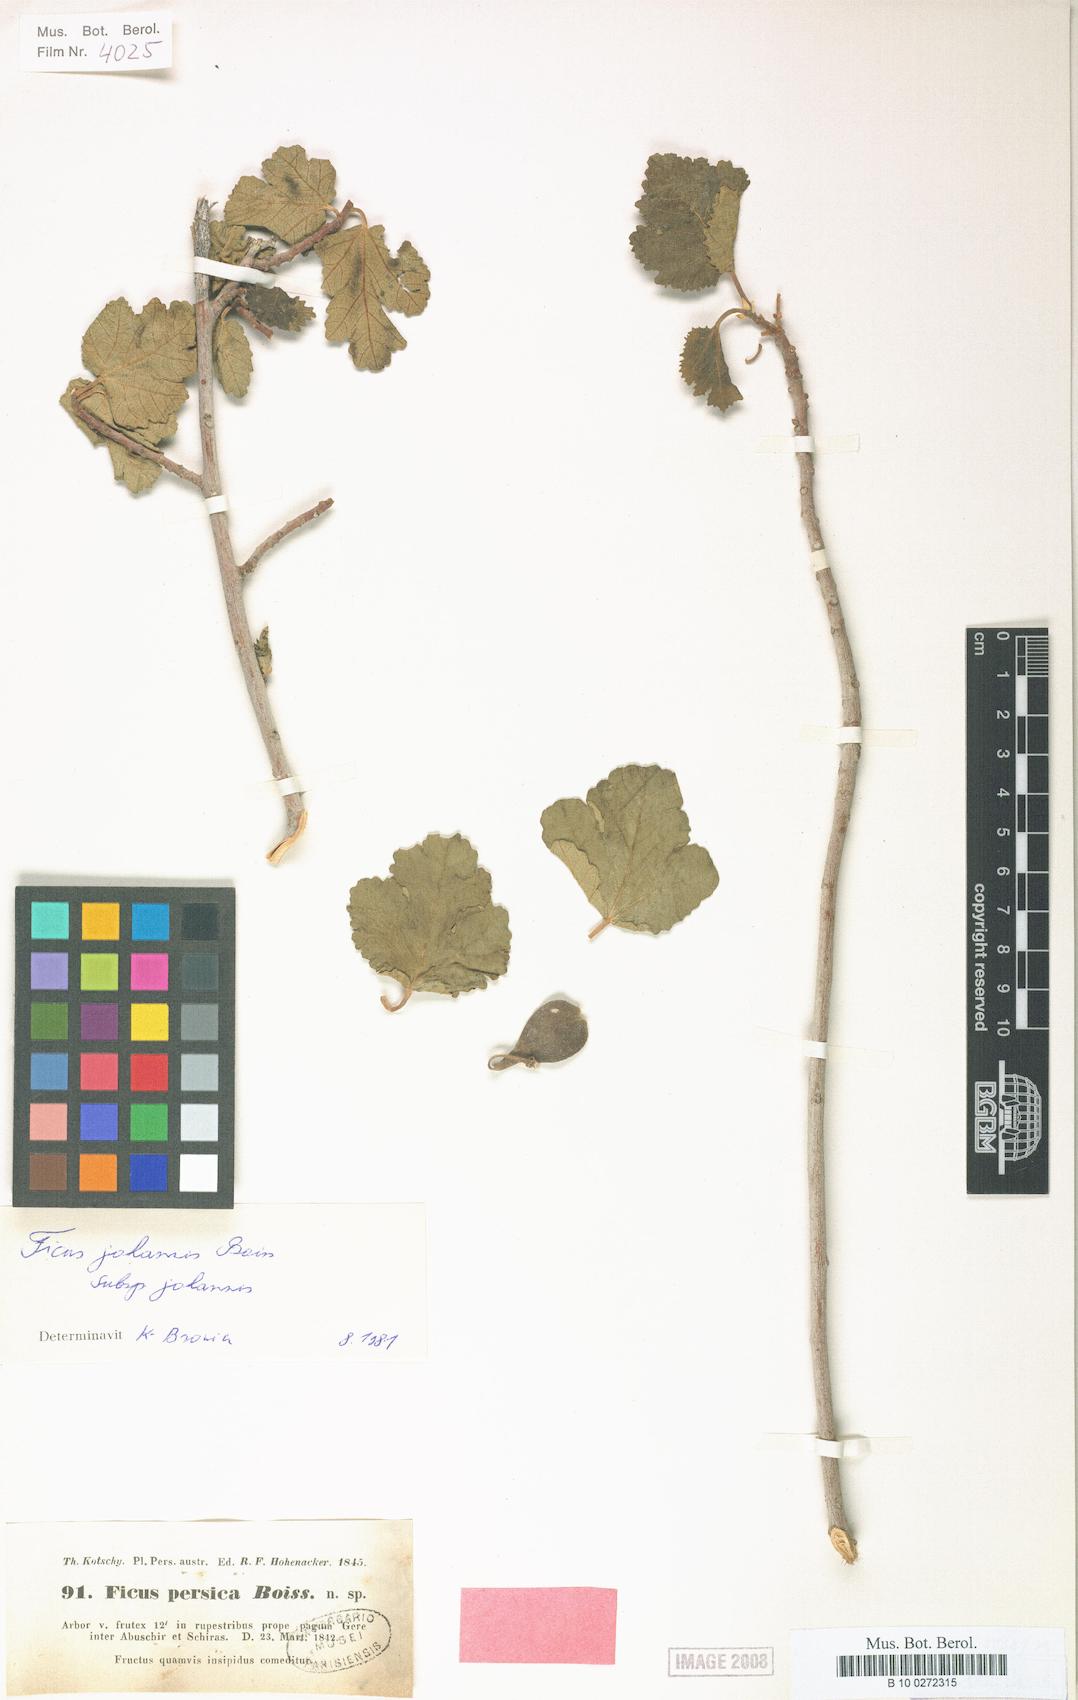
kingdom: Plantae
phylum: Tracheophyta
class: Magnoliopsida
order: Rosales
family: Moraceae
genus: Ficus
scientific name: Ficus johannis
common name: Mountain fig
